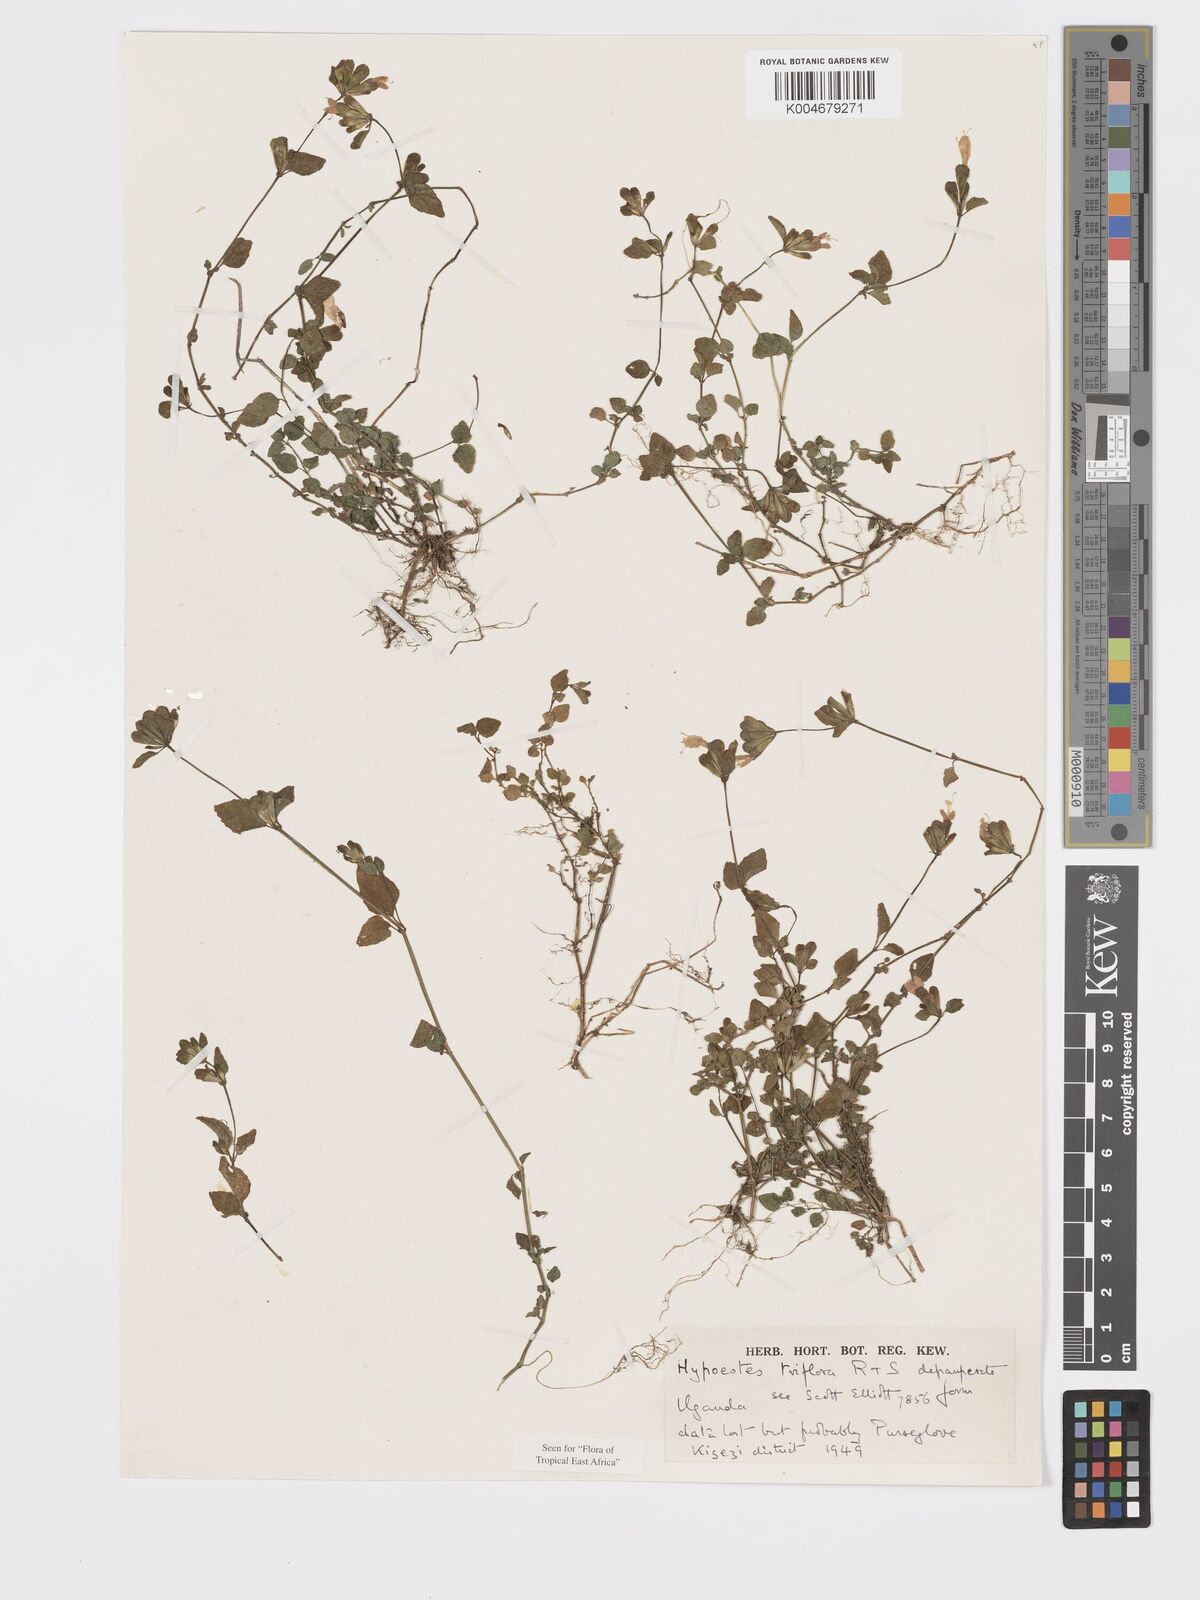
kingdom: Plantae
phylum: Tracheophyta
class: Magnoliopsida
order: Lamiales
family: Acanthaceae
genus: Hypoestes
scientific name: Hypoestes triflora
